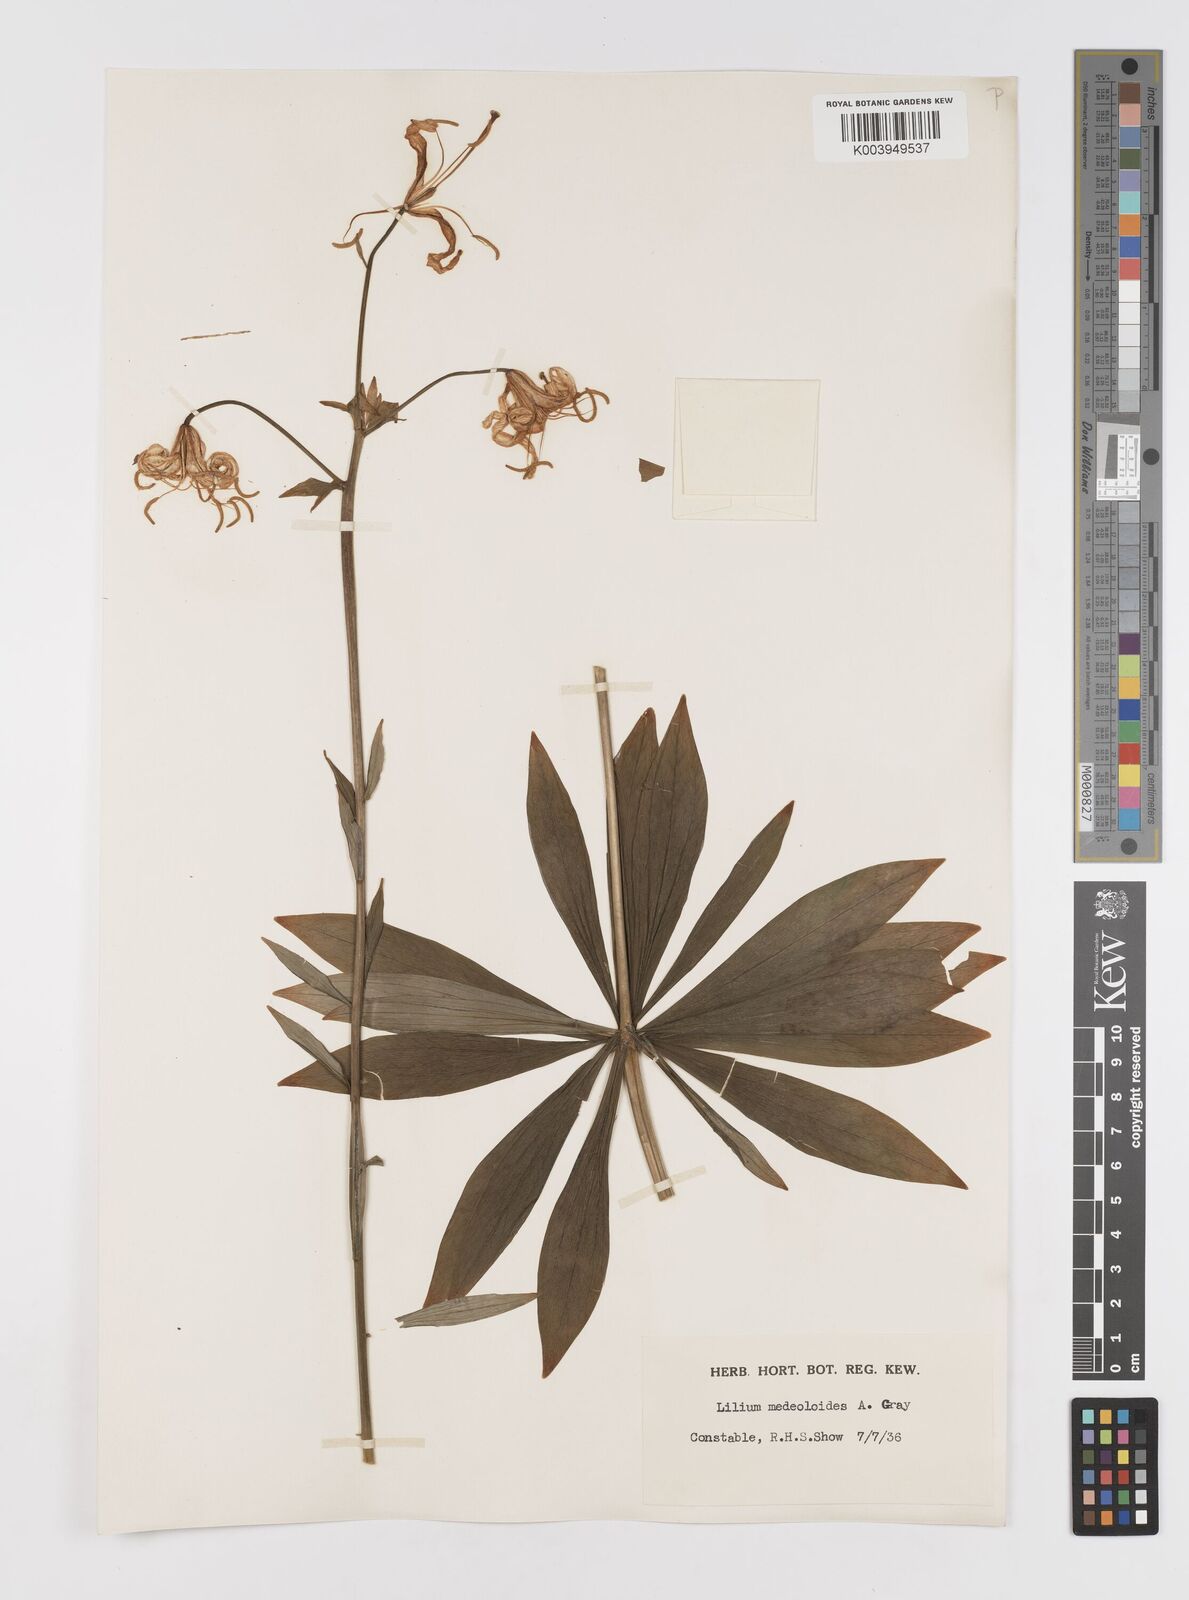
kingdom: Plantae
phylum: Tracheophyta
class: Liliopsida
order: Liliales
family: Liliaceae
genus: Lilium
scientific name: Lilium medeoloides
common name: Wheel lily
